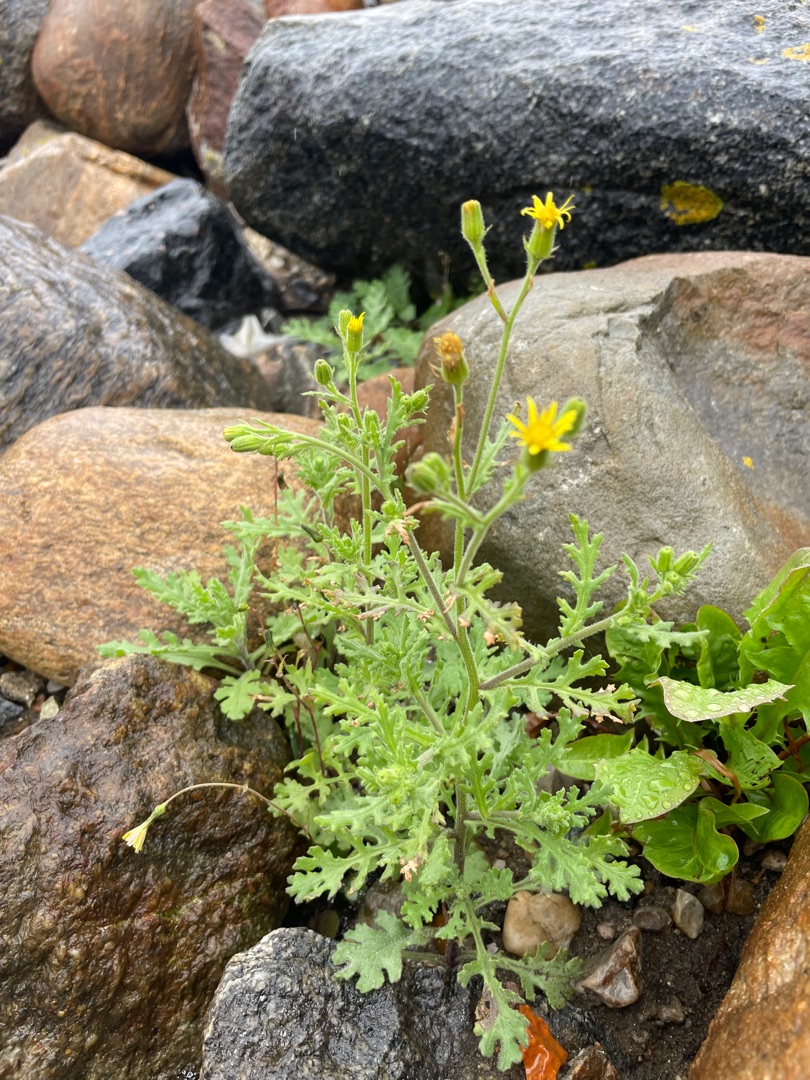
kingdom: Plantae
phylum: Tracheophyta
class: Magnoliopsida
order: Asterales
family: Asteraceae
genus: Senecio
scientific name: Senecio viscosus
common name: Klæbrig brandbæger
